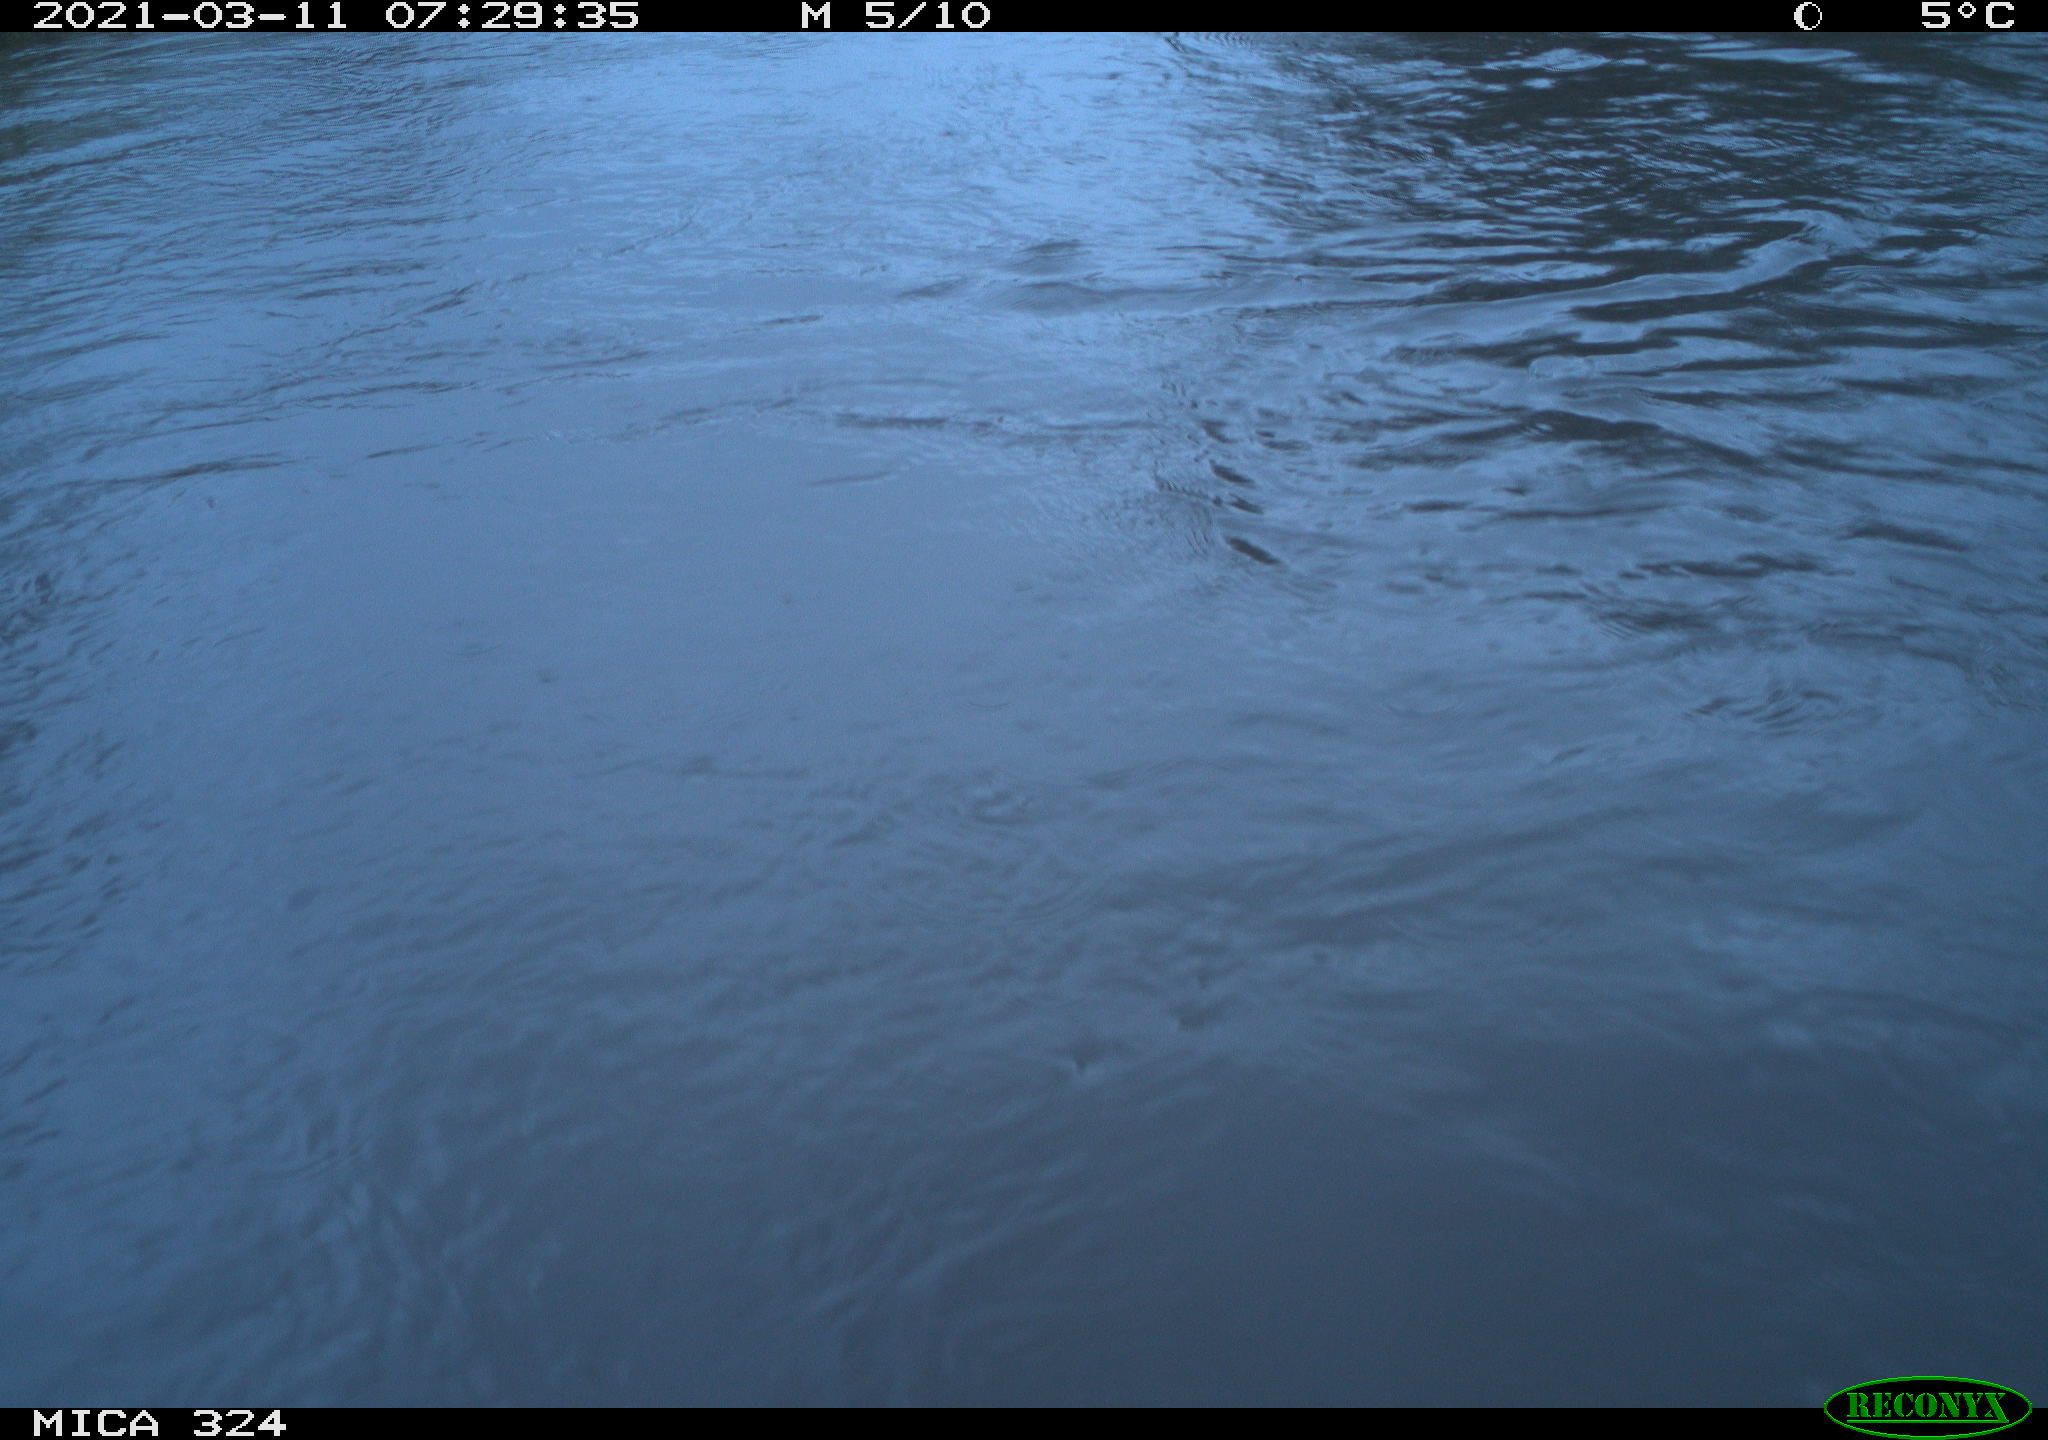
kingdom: Animalia
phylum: Chordata
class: Aves
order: Gruiformes
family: Rallidae
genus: Gallinula
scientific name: Gallinula chloropus
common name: Common moorhen
